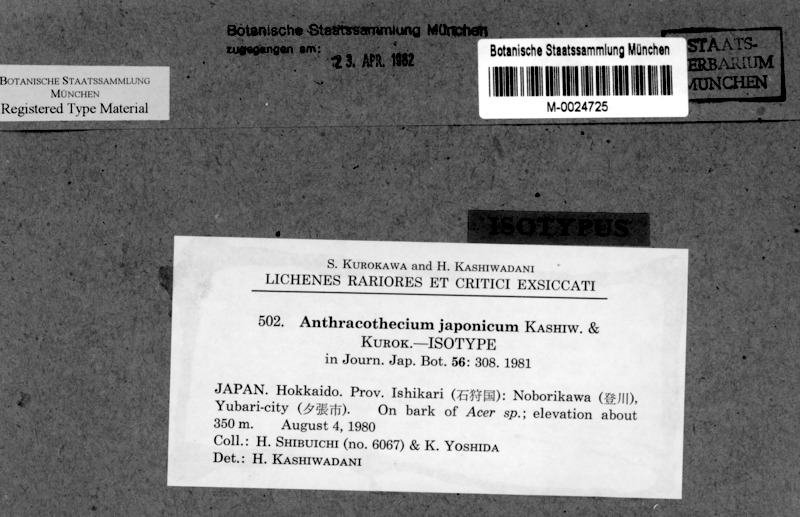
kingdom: Fungi
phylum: Ascomycota
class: Eurotiomycetes
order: Pyrenulales
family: Pyrenulaceae
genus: Pyrenula
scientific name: Pyrenula neojaponica
